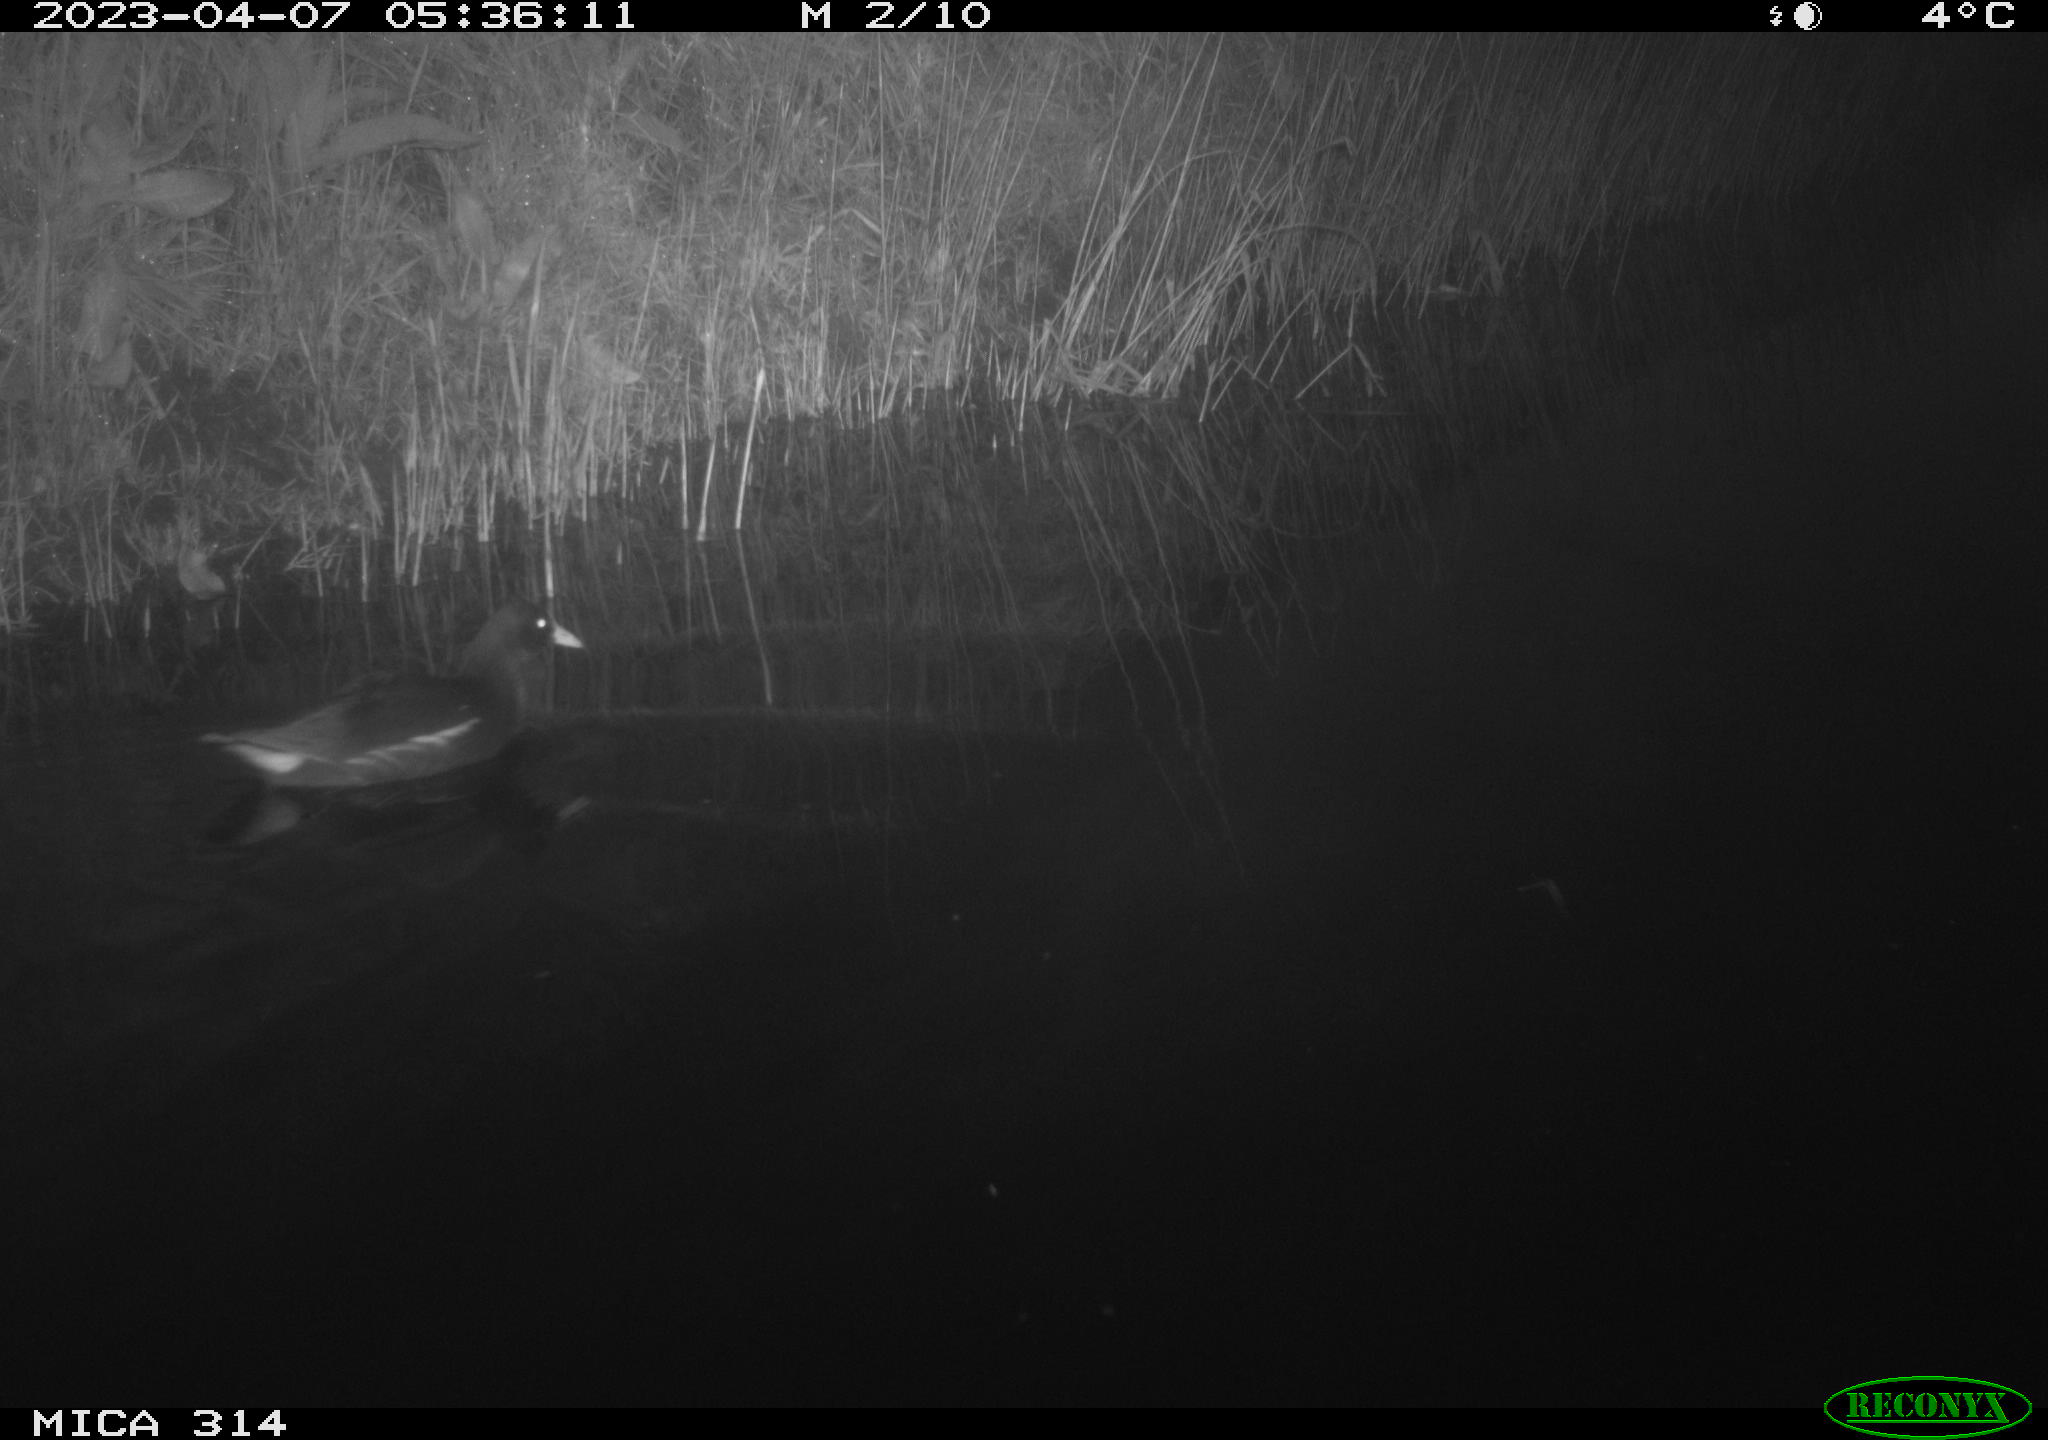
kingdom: Animalia
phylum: Chordata
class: Aves
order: Gruiformes
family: Rallidae
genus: Gallinula
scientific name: Gallinula chloropus
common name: Common moorhen
